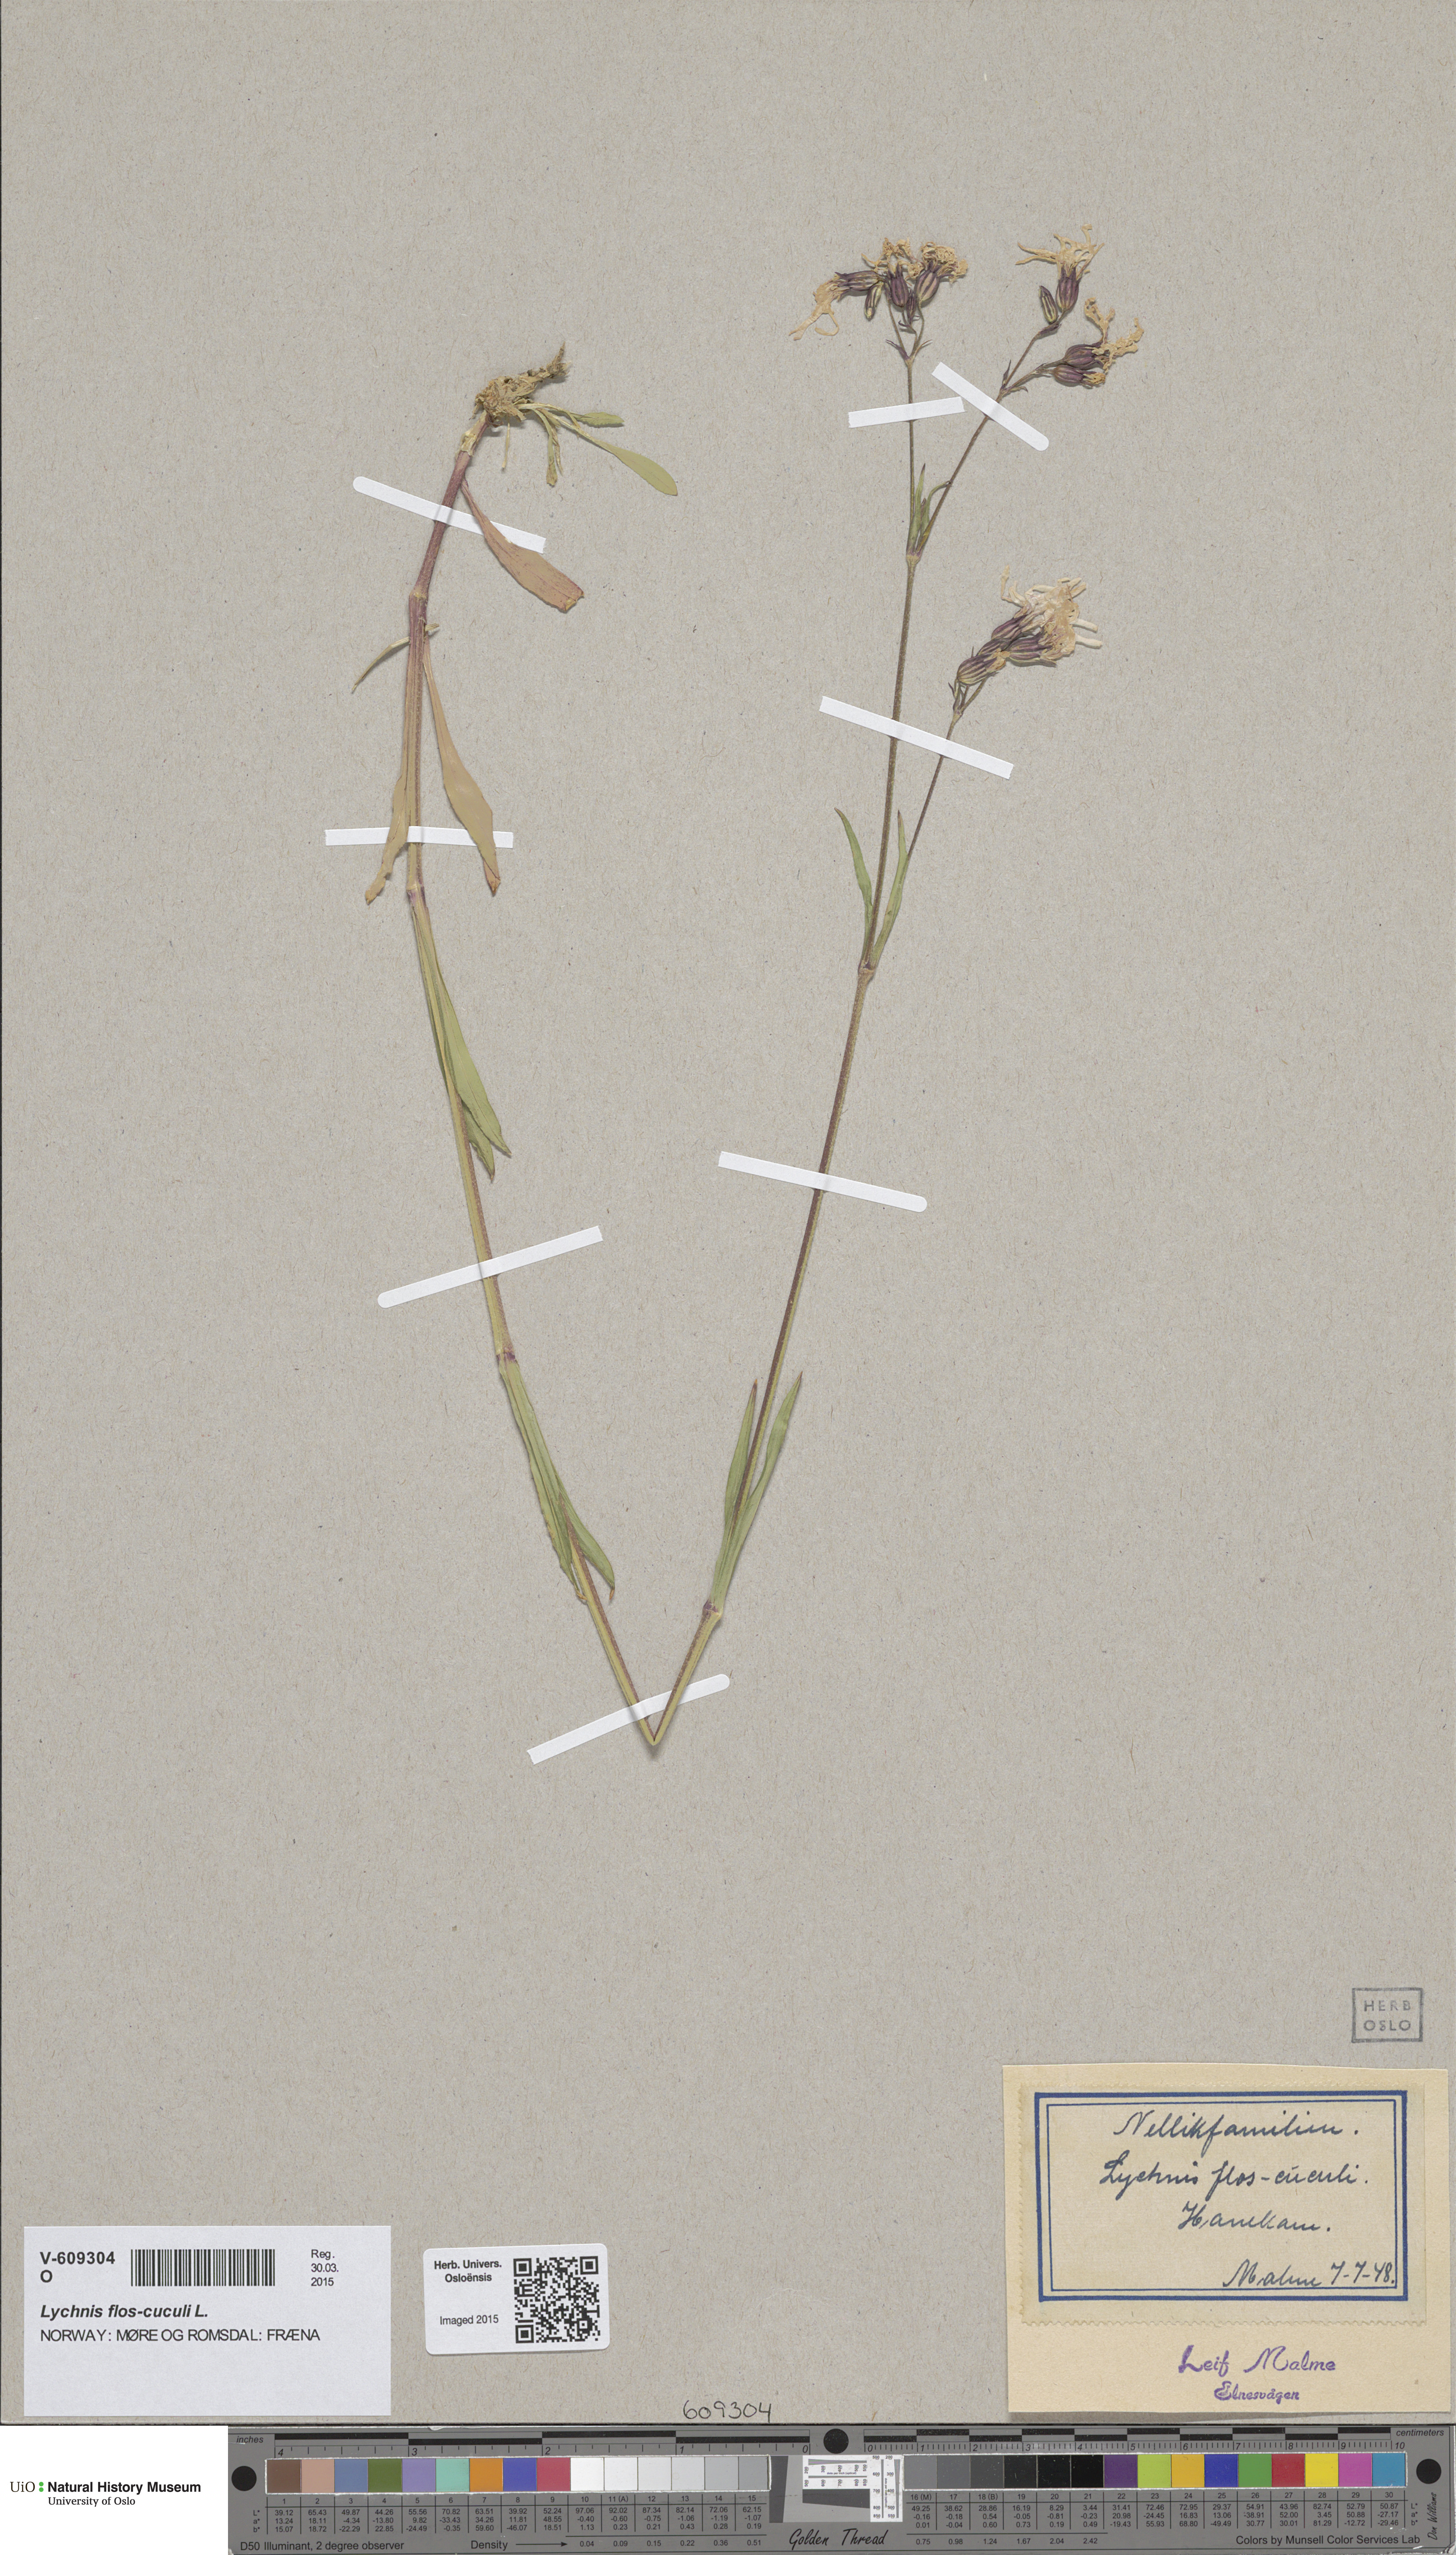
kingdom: Plantae
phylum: Tracheophyta
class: Magnoliopsida
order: Caryophyllales
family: Caryophyllaceae
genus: Silene
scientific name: Silene flos-cuculi
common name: Ragged-robin
